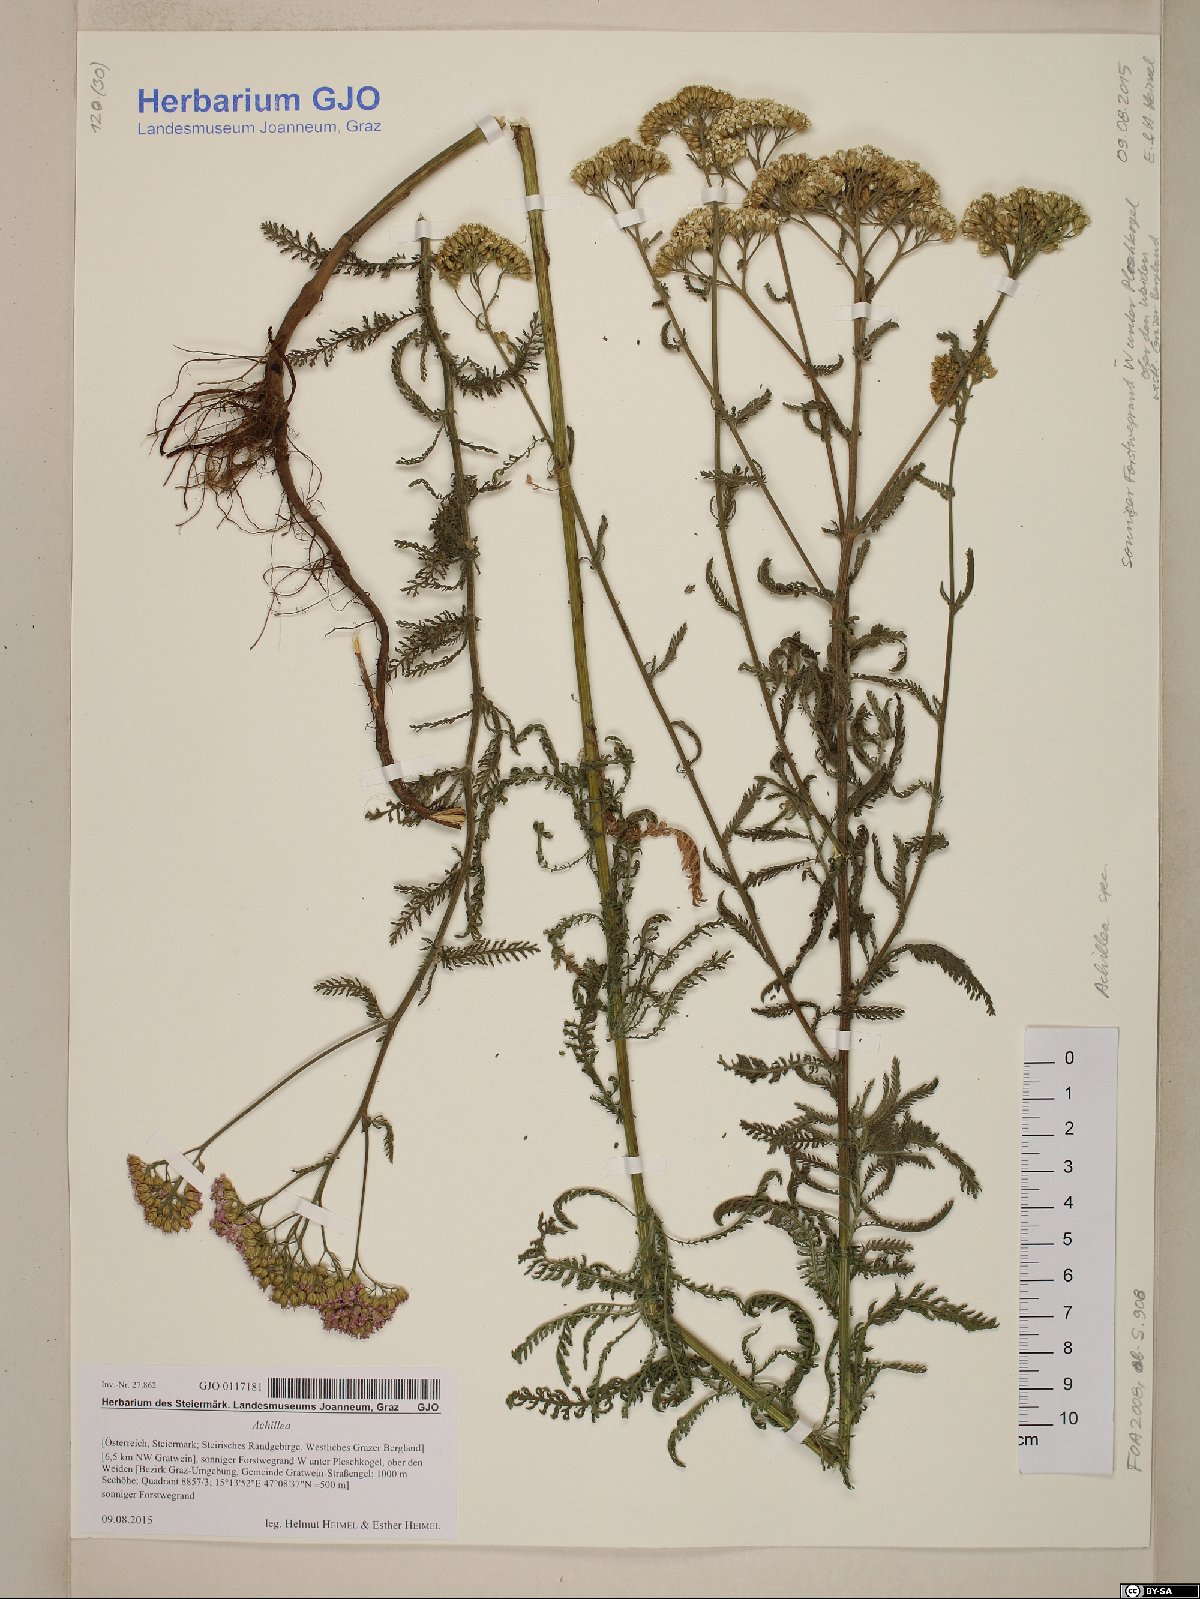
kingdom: Plantae
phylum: Tracheophyta
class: Magnoliopsida
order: Asterales
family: Asteraceae
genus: Achillea
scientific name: Achillea
